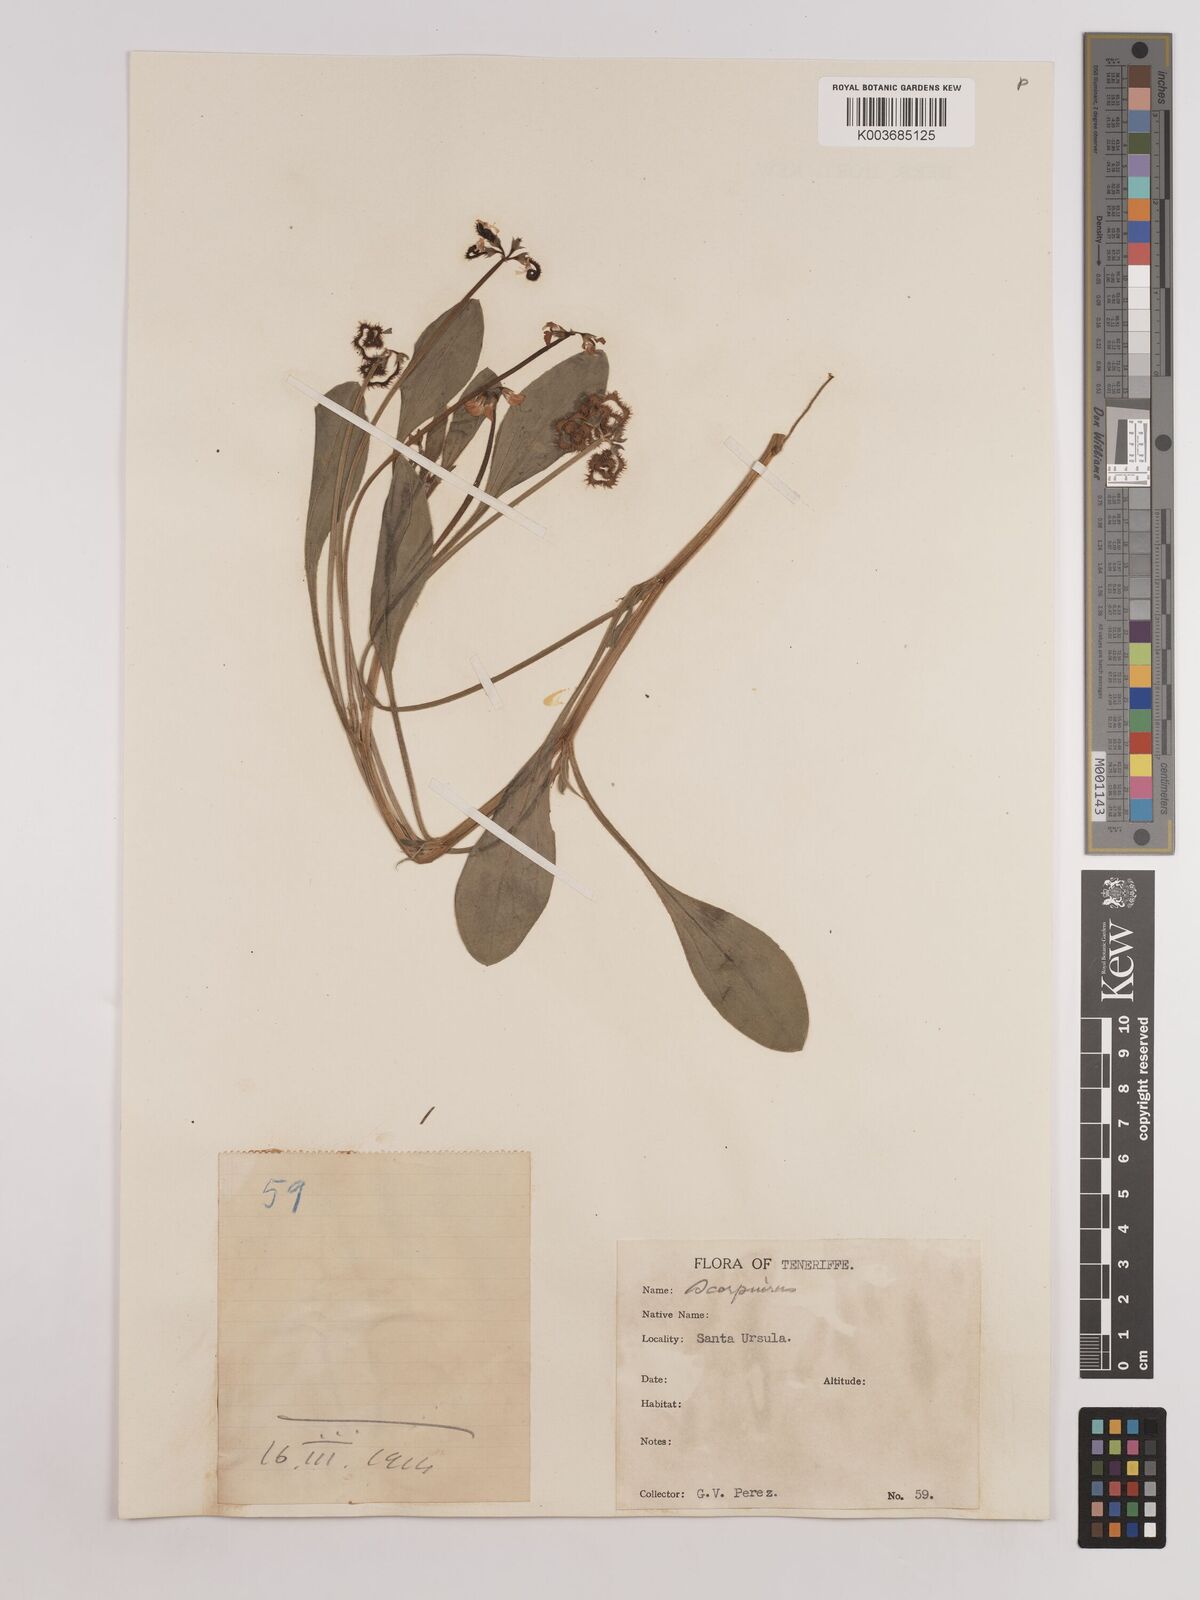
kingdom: Plantae
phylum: Tracheophyta
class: Magnoliopsida
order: Fabales
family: Fabaceae
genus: Scorpiurus
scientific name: Scorpiurus muricatus
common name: Caterpillar-plant
